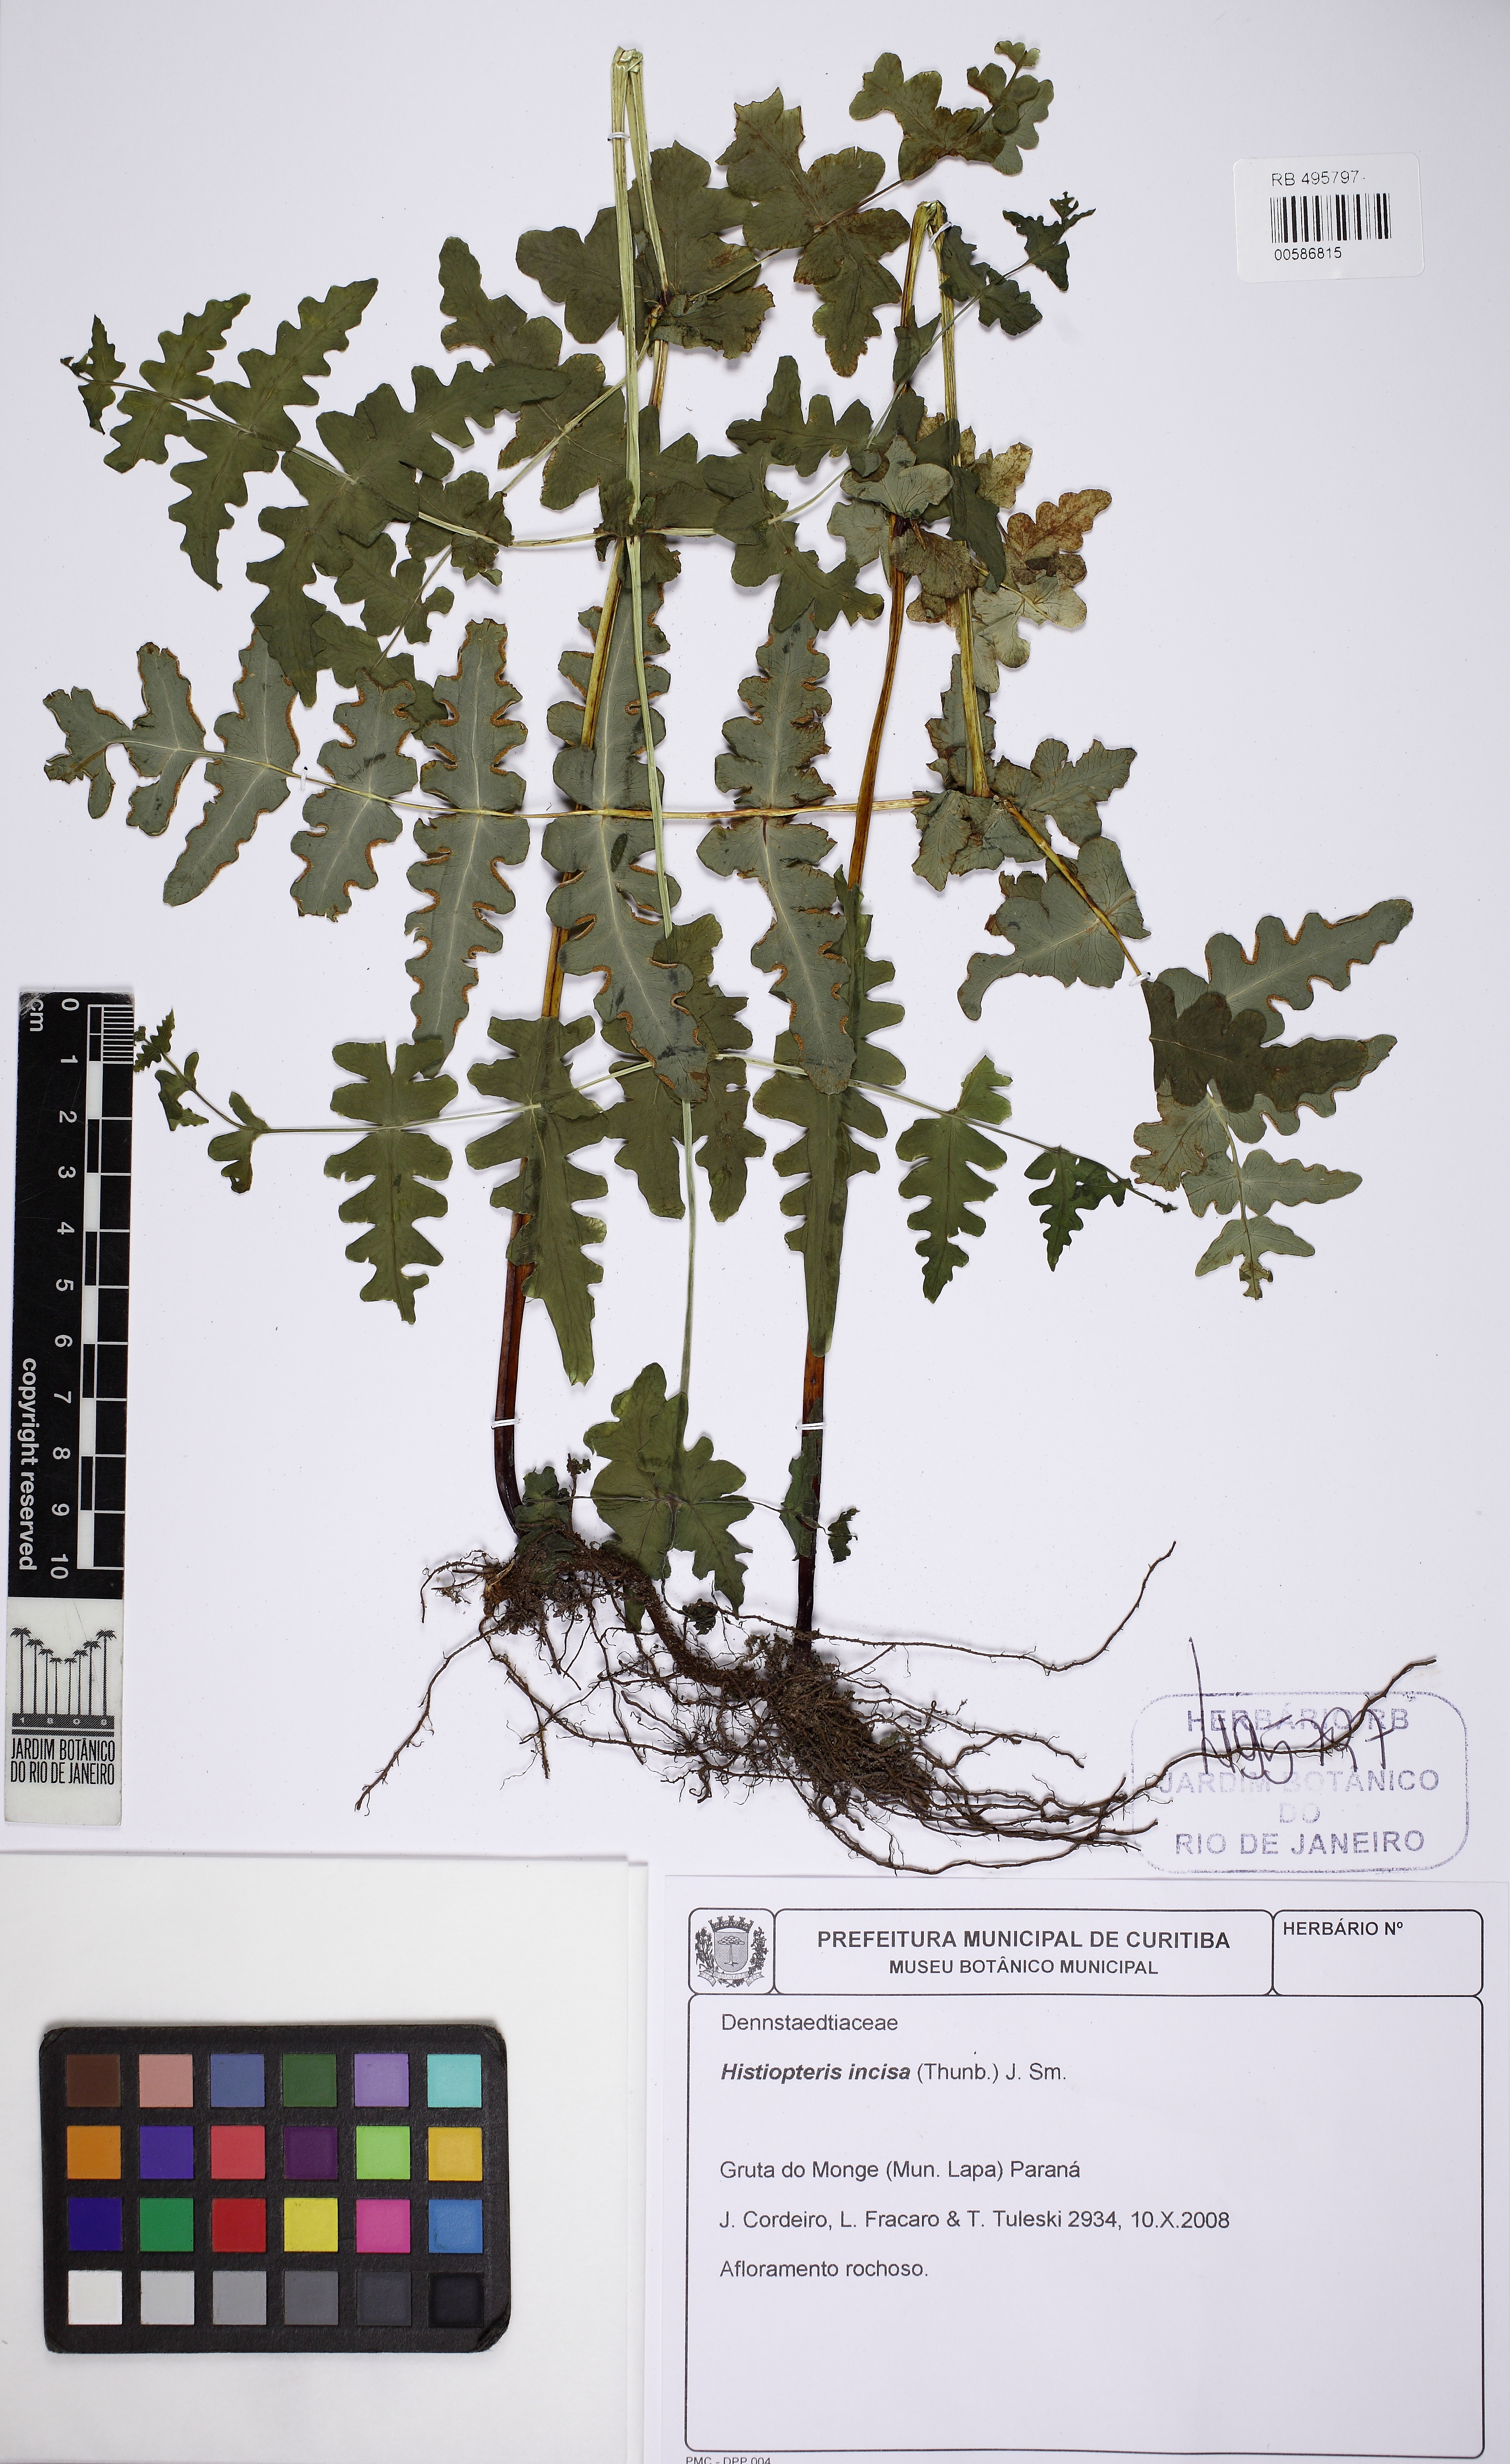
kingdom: Plantae
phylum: Tracheophyta
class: Polypodiopsida
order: Polypodiales
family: Dennstaedtiaceae
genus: Histiopteris
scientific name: Histiopteris incisa
